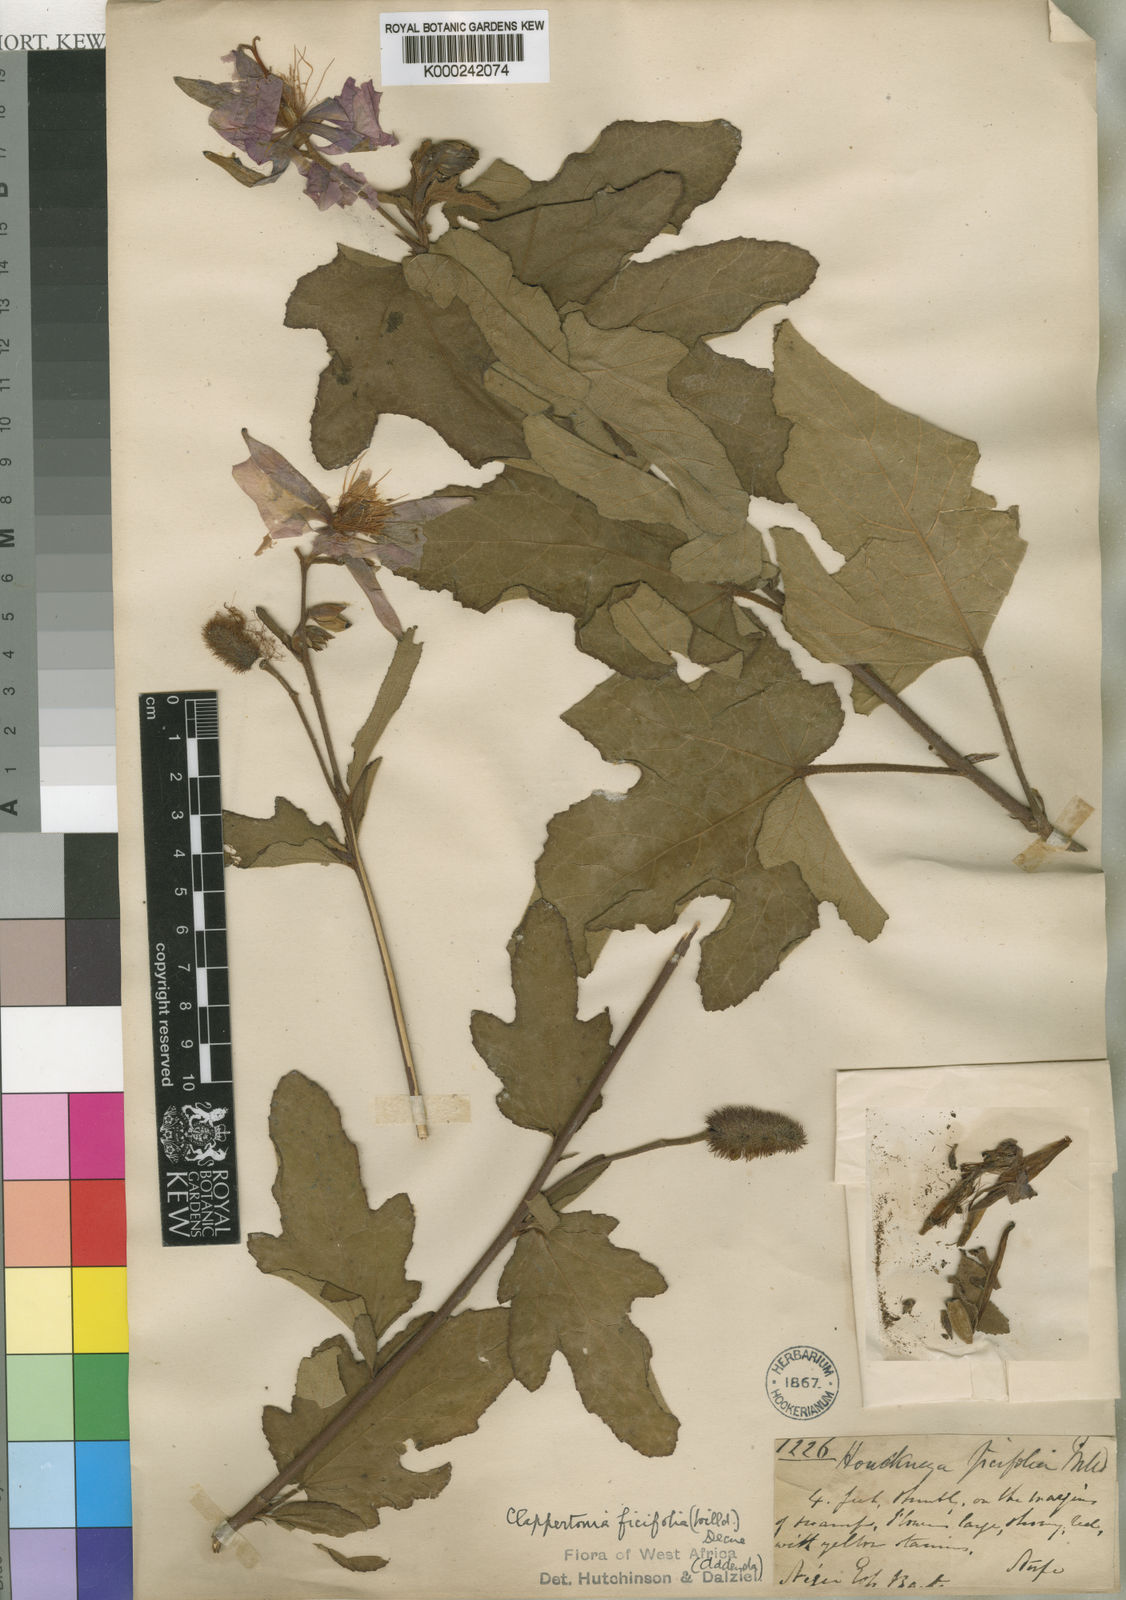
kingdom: Plantae
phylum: Tracheophyta
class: Magnoliopsida
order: Malvales
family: Malvaceae
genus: Clappertonia
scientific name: Clappertonia ficifolia
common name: Bolo-bolo
